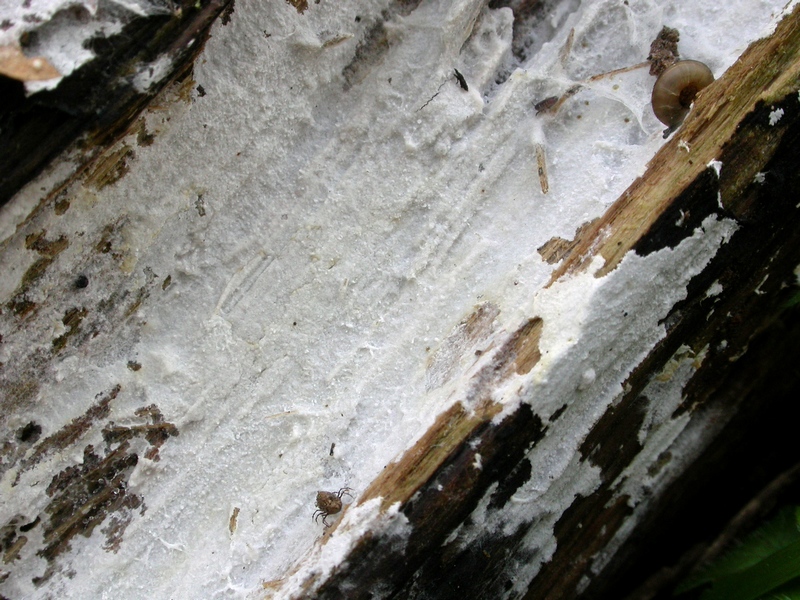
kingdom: Fungi
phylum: Basidiomycota
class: Agaricomycetes
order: Atheliales
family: Atheliaceae
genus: Athelia
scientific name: Athelia neuhoffii
